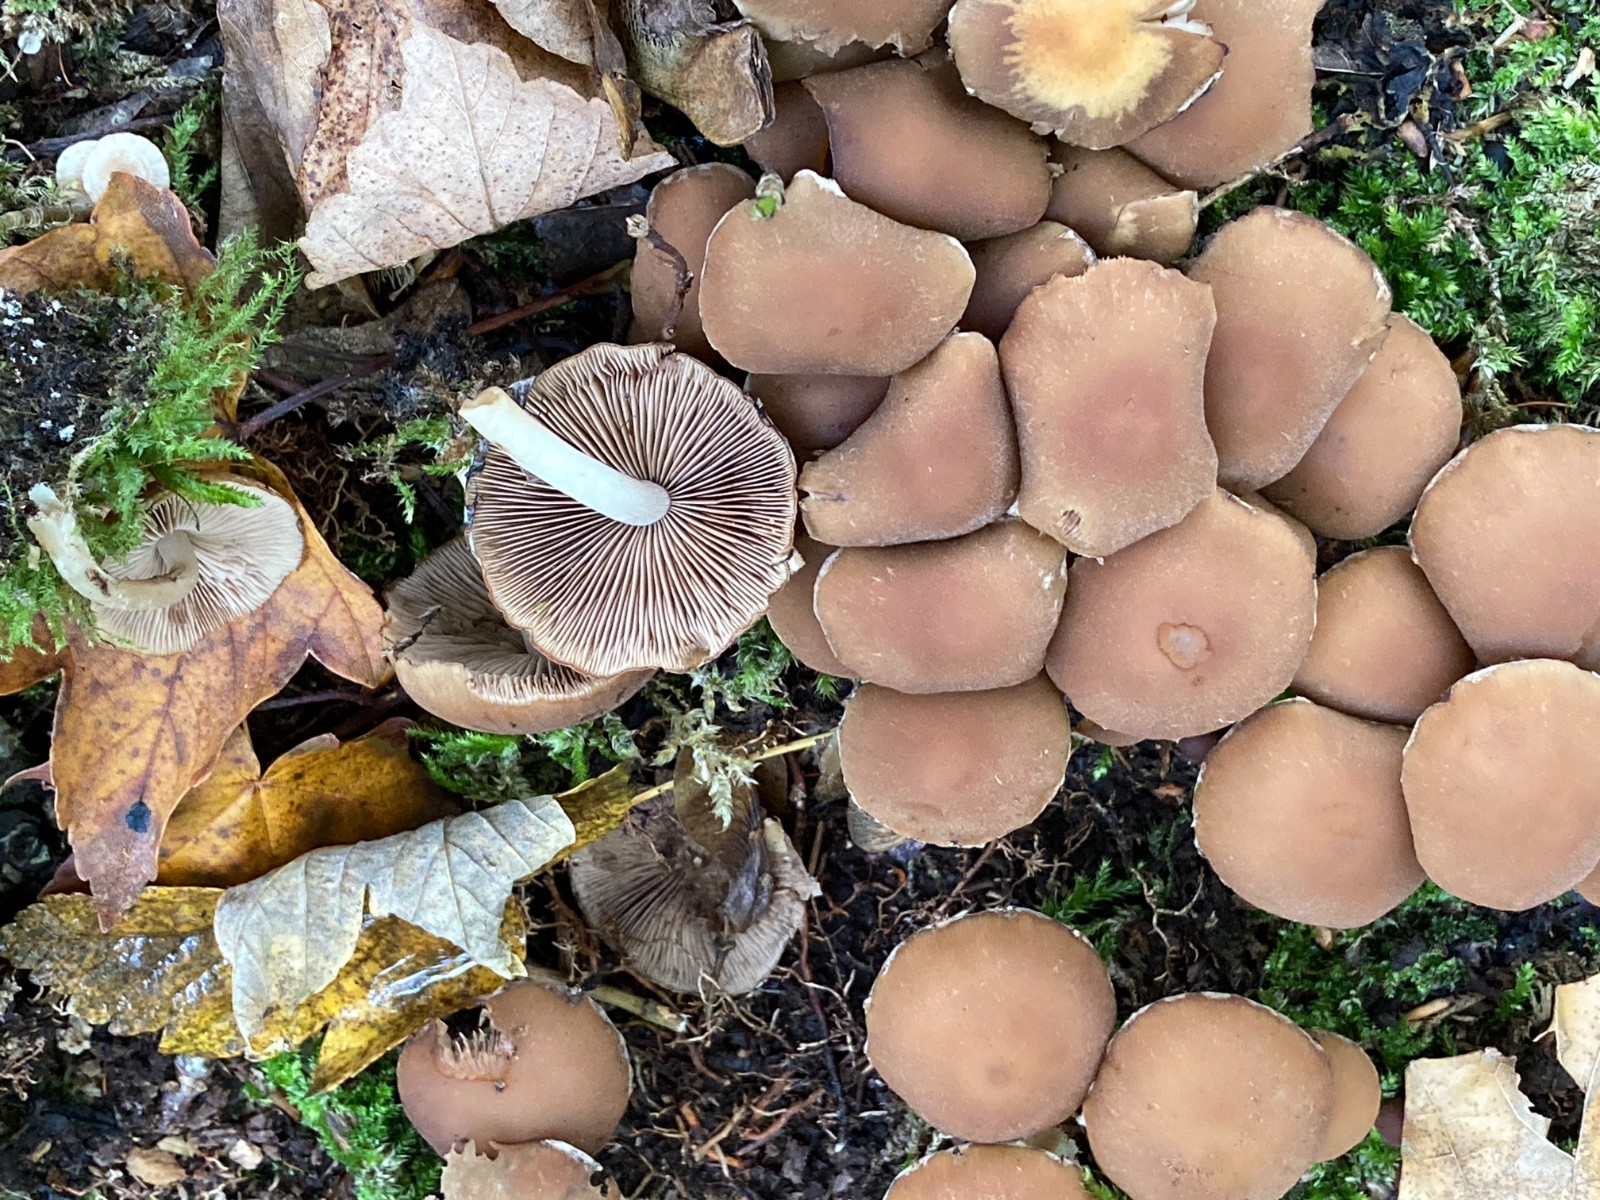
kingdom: Fungi
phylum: Basidiomycota
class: Agaricomycetes
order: Agaricales
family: Psathyrellaceae
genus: Psathyrella
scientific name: Psathyrella piluliformis
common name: lysstokket mørkhat
